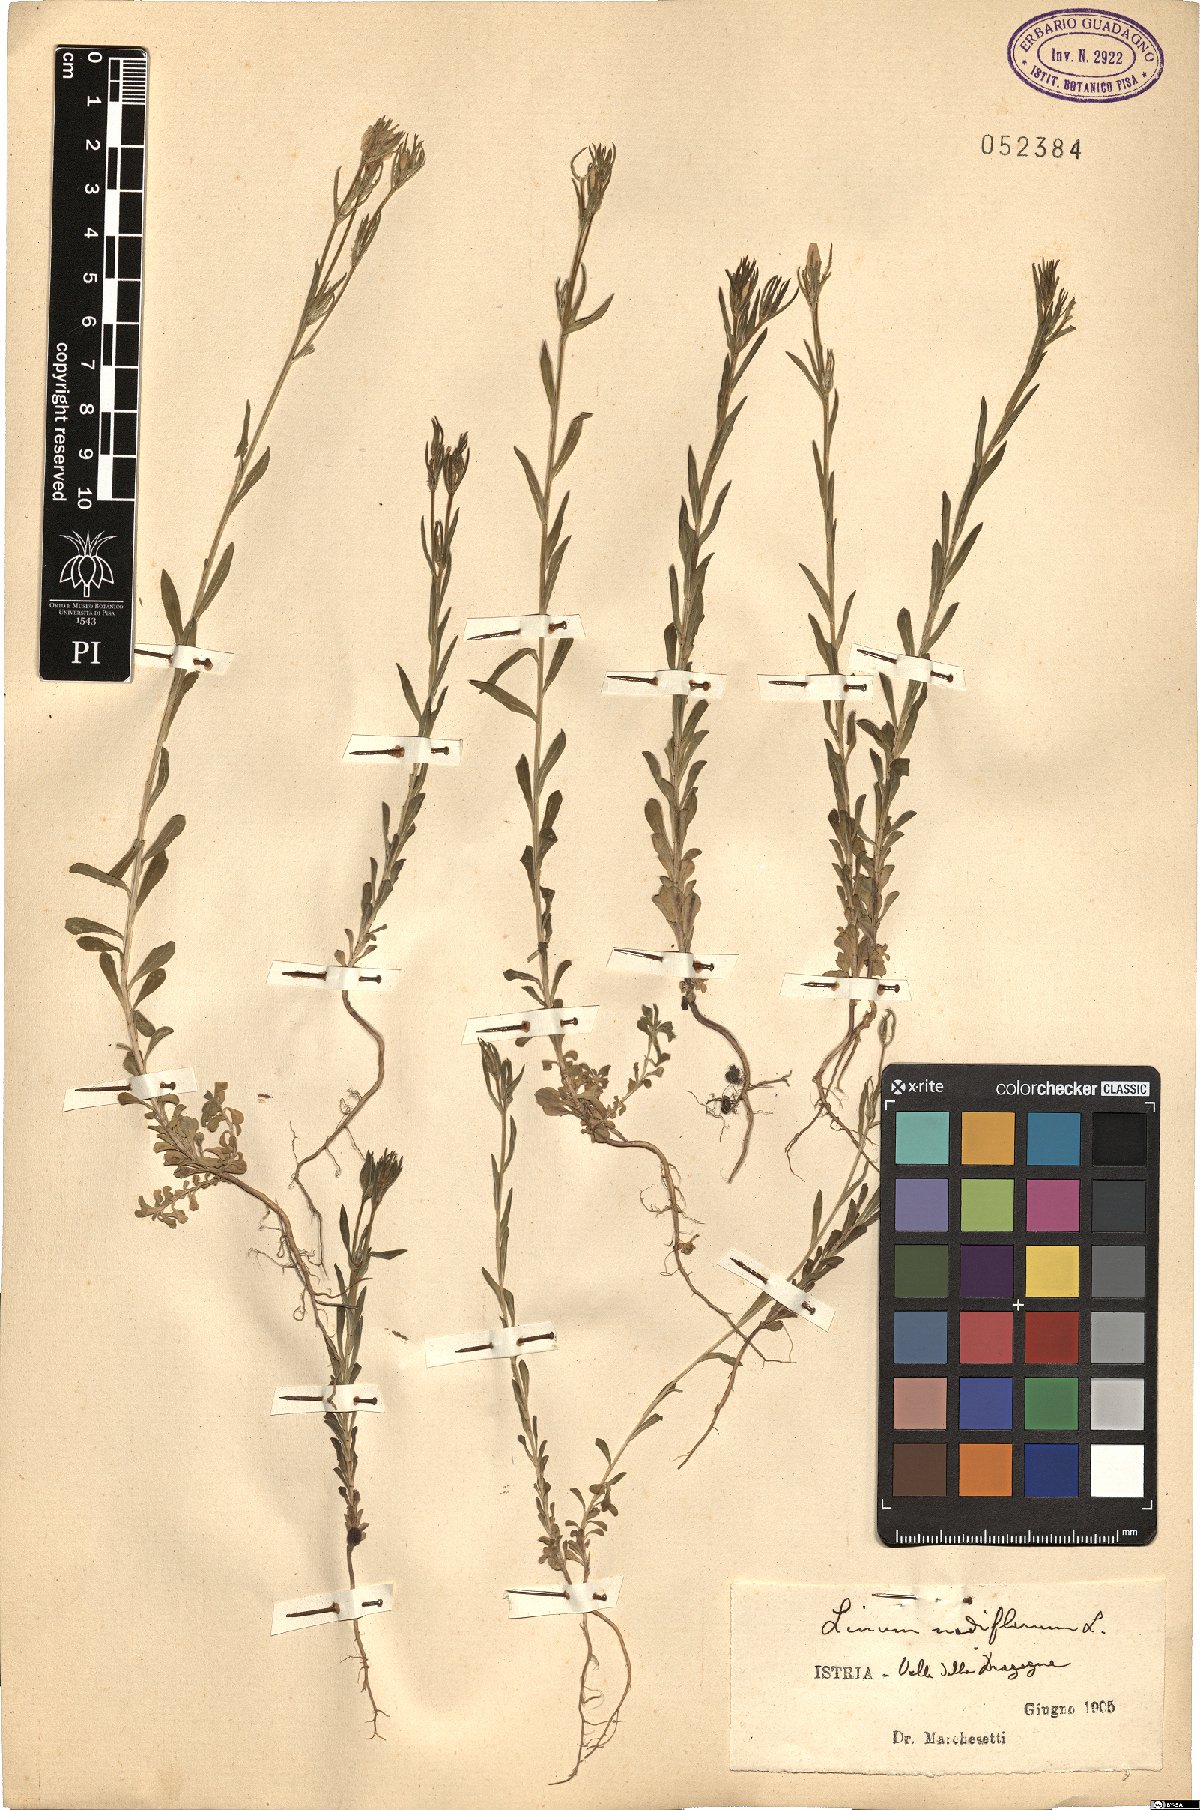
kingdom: Plantae
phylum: Tracheophyta
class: Magnoliopsida
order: Malpighiales
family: Linaceae
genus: Linum
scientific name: Linum nodiflorum
